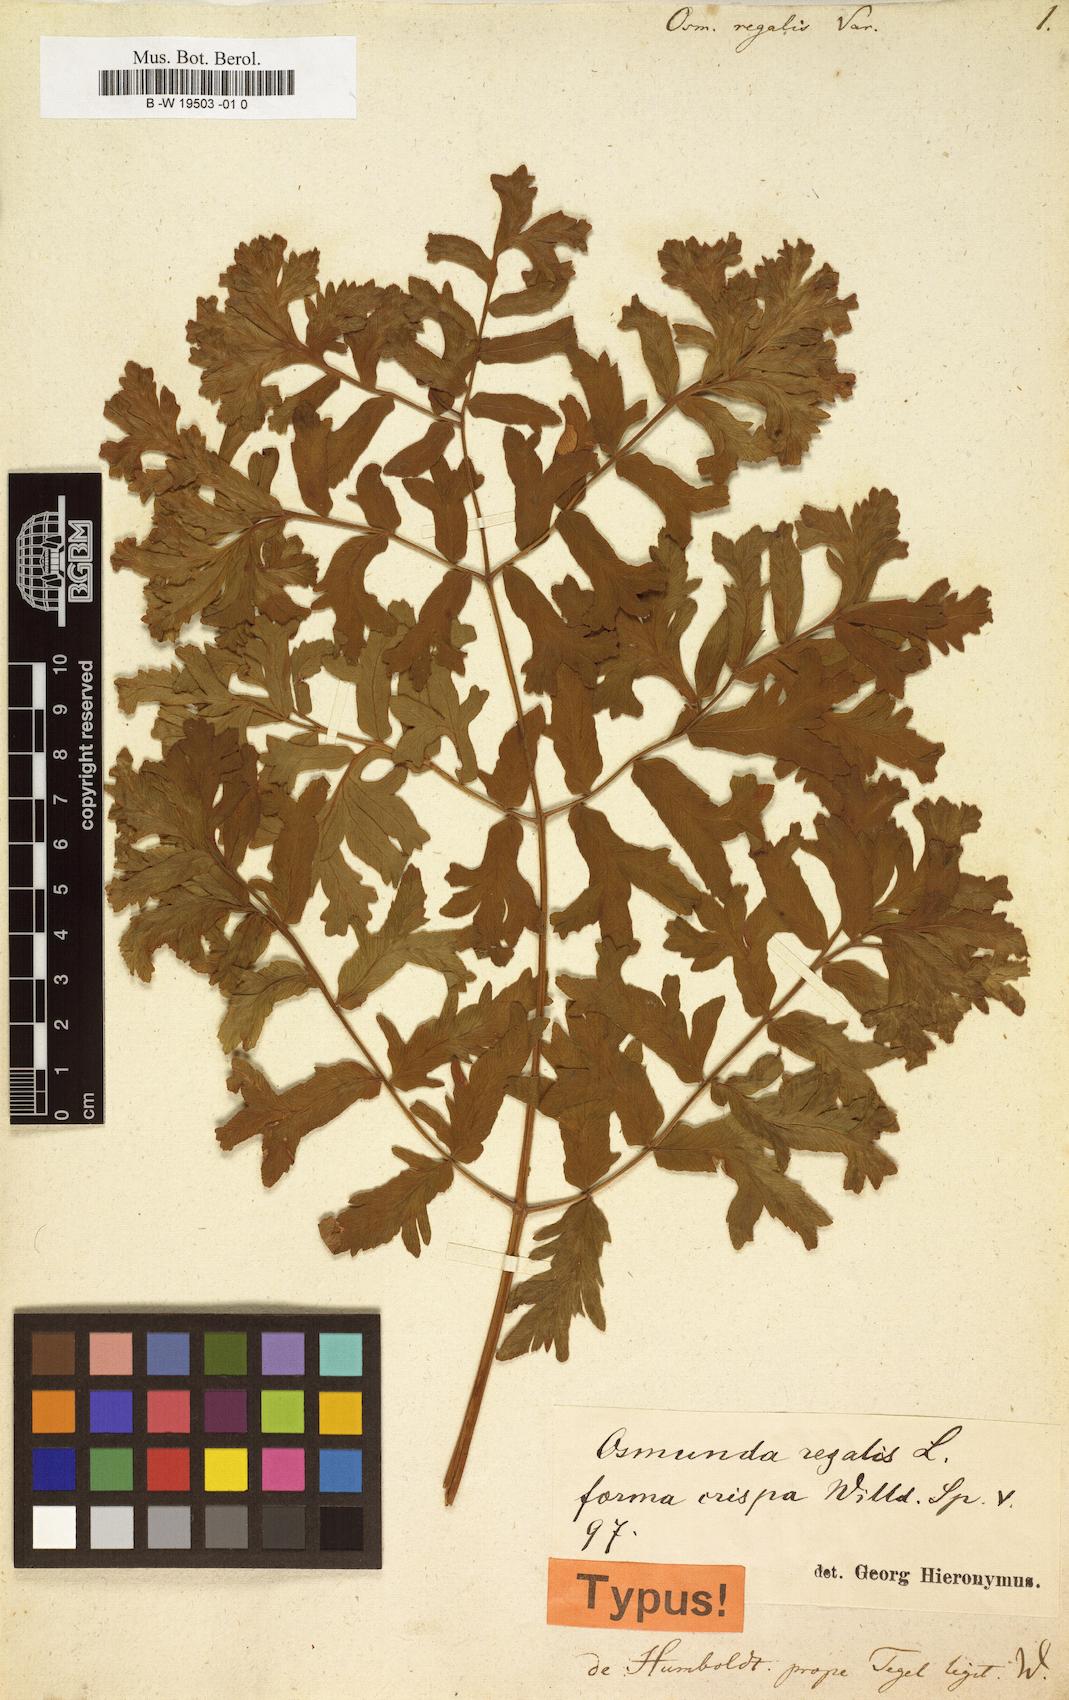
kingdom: Plantae
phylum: Tracheophyta
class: Polypodiopsida
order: Osmundales
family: Osmundaceae
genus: Osmunda
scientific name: Osmunda regalis
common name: Royal fern
